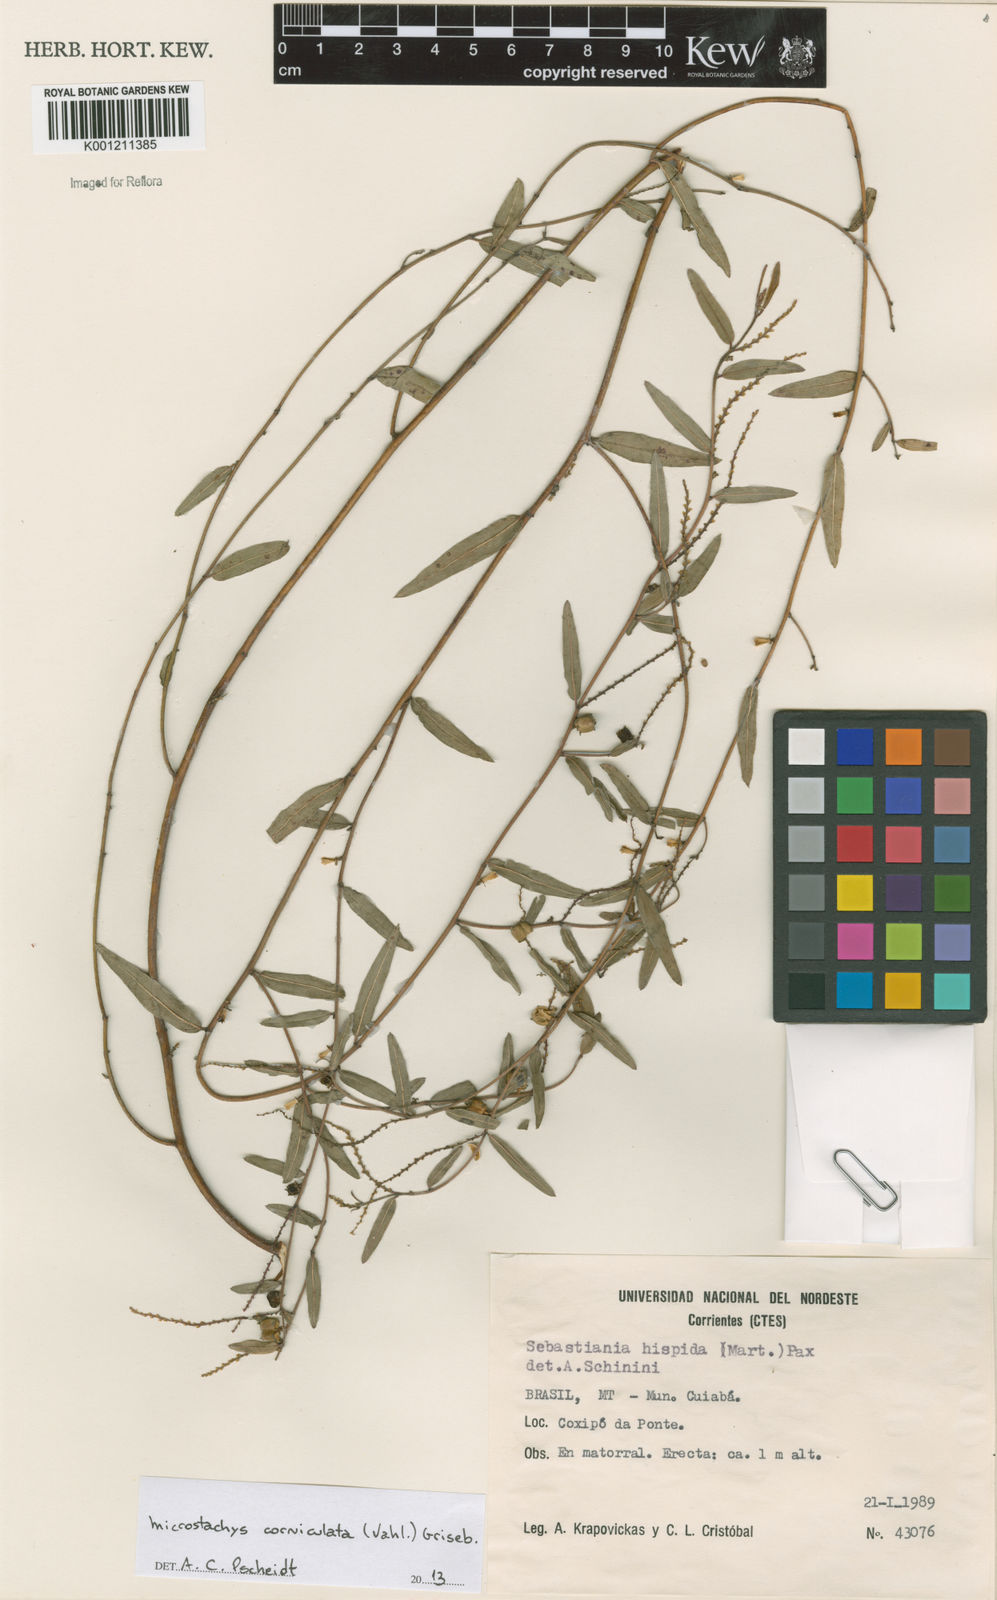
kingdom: Plantae
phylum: Tracheophyta
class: Magnoliopsida
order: Malpighiales
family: Euphorbiaceae
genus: Microstachys
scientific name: Microstachys corniculata
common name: Hato tejas
